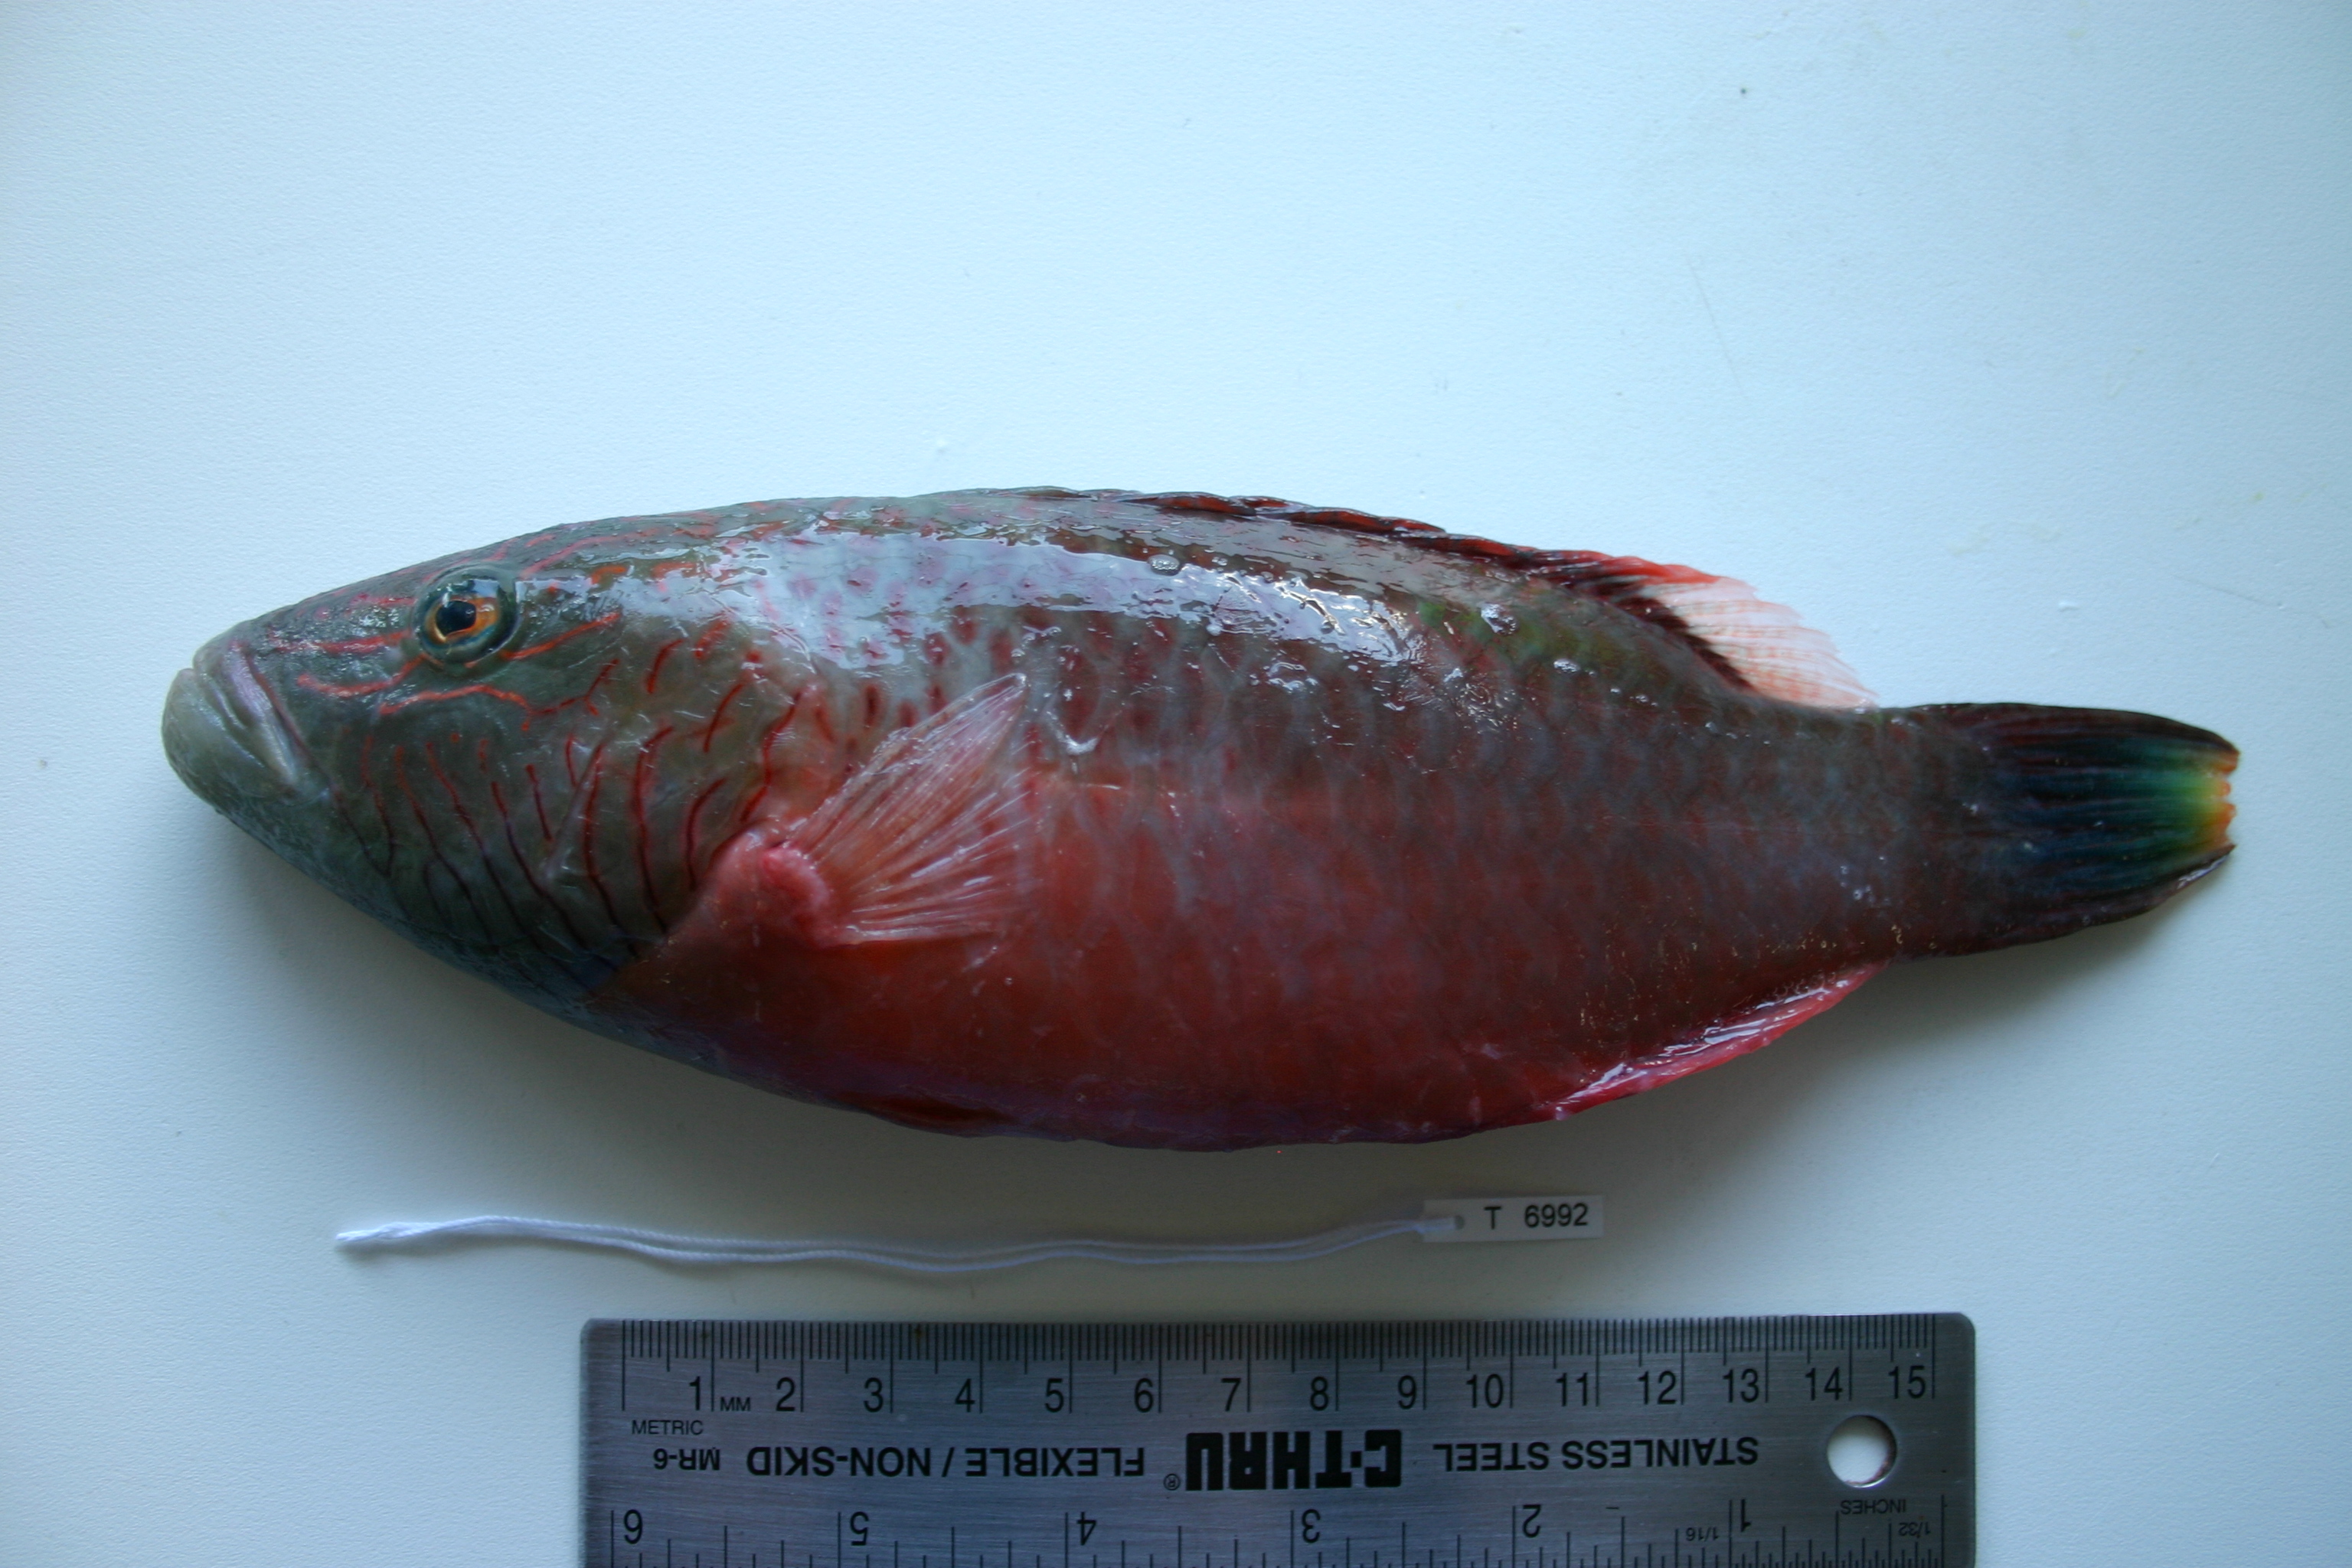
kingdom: Animalia
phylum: Chordata
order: Perciformes
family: Labridae
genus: Oxycheilinus
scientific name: Oxycheilinus digramma
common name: Bandcheek wrasse
